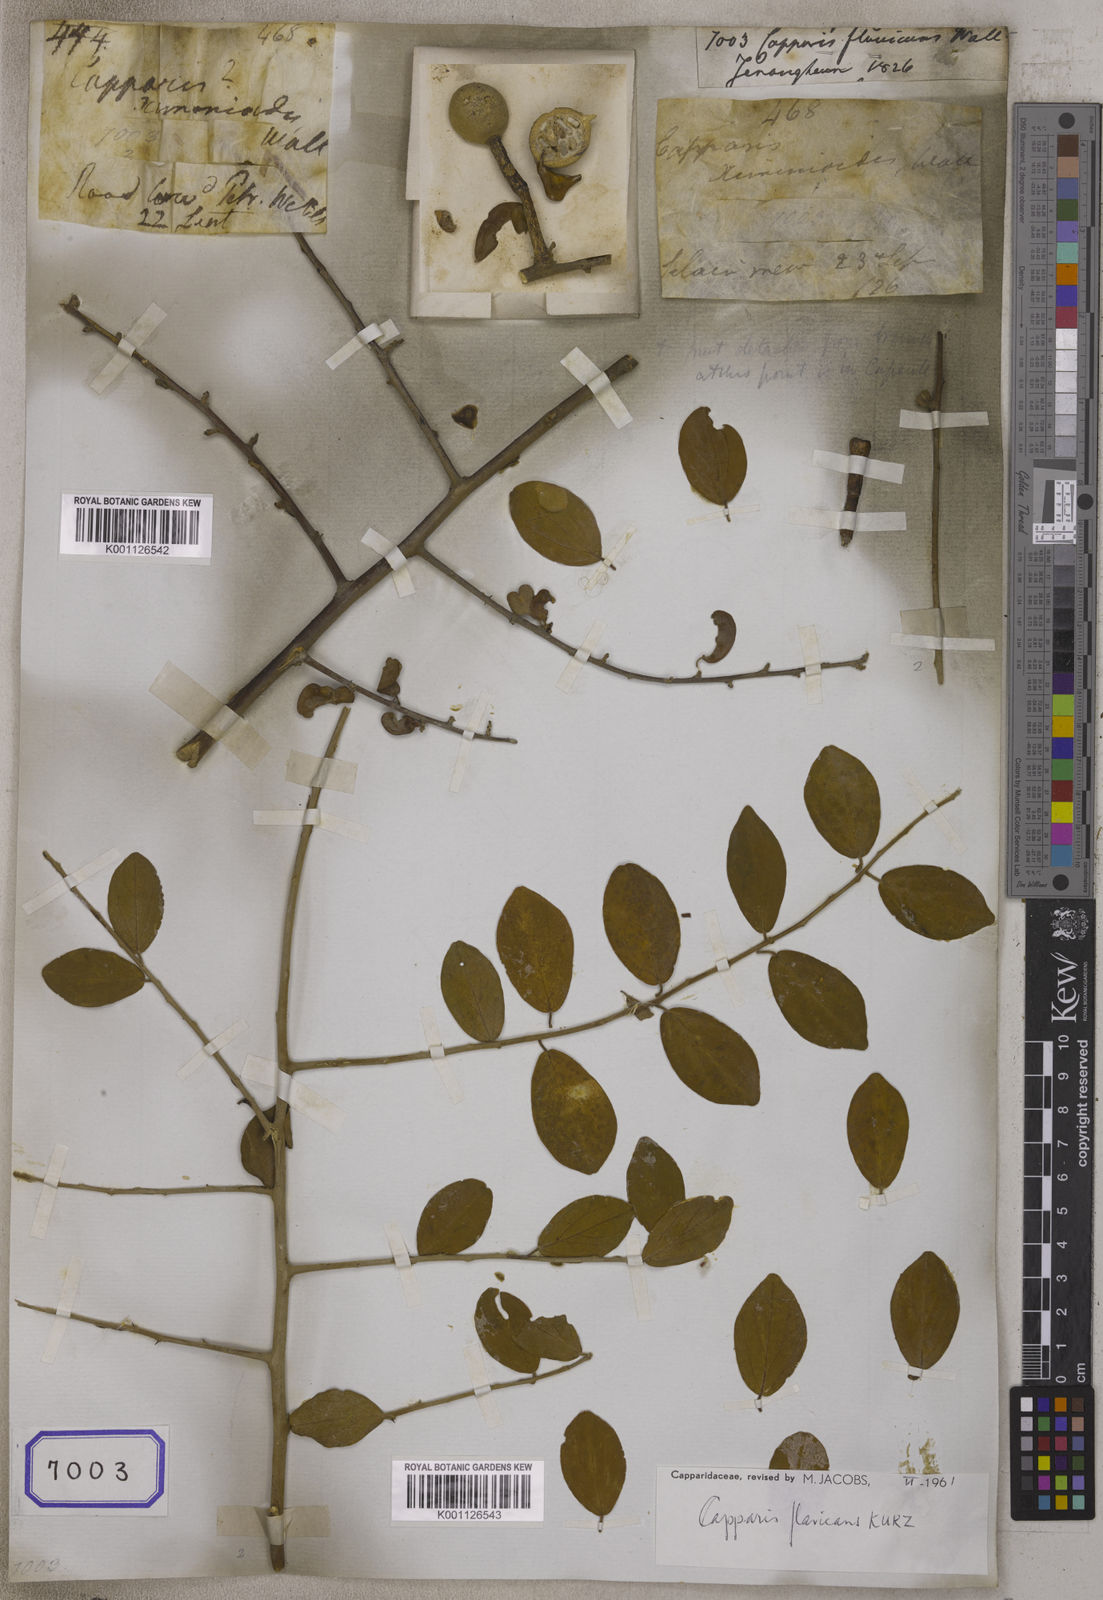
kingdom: Plantae
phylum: Tracheophyta
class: Magnoliopsida
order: Brassicales
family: Capparaceae
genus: Capparis
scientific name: Capparis
